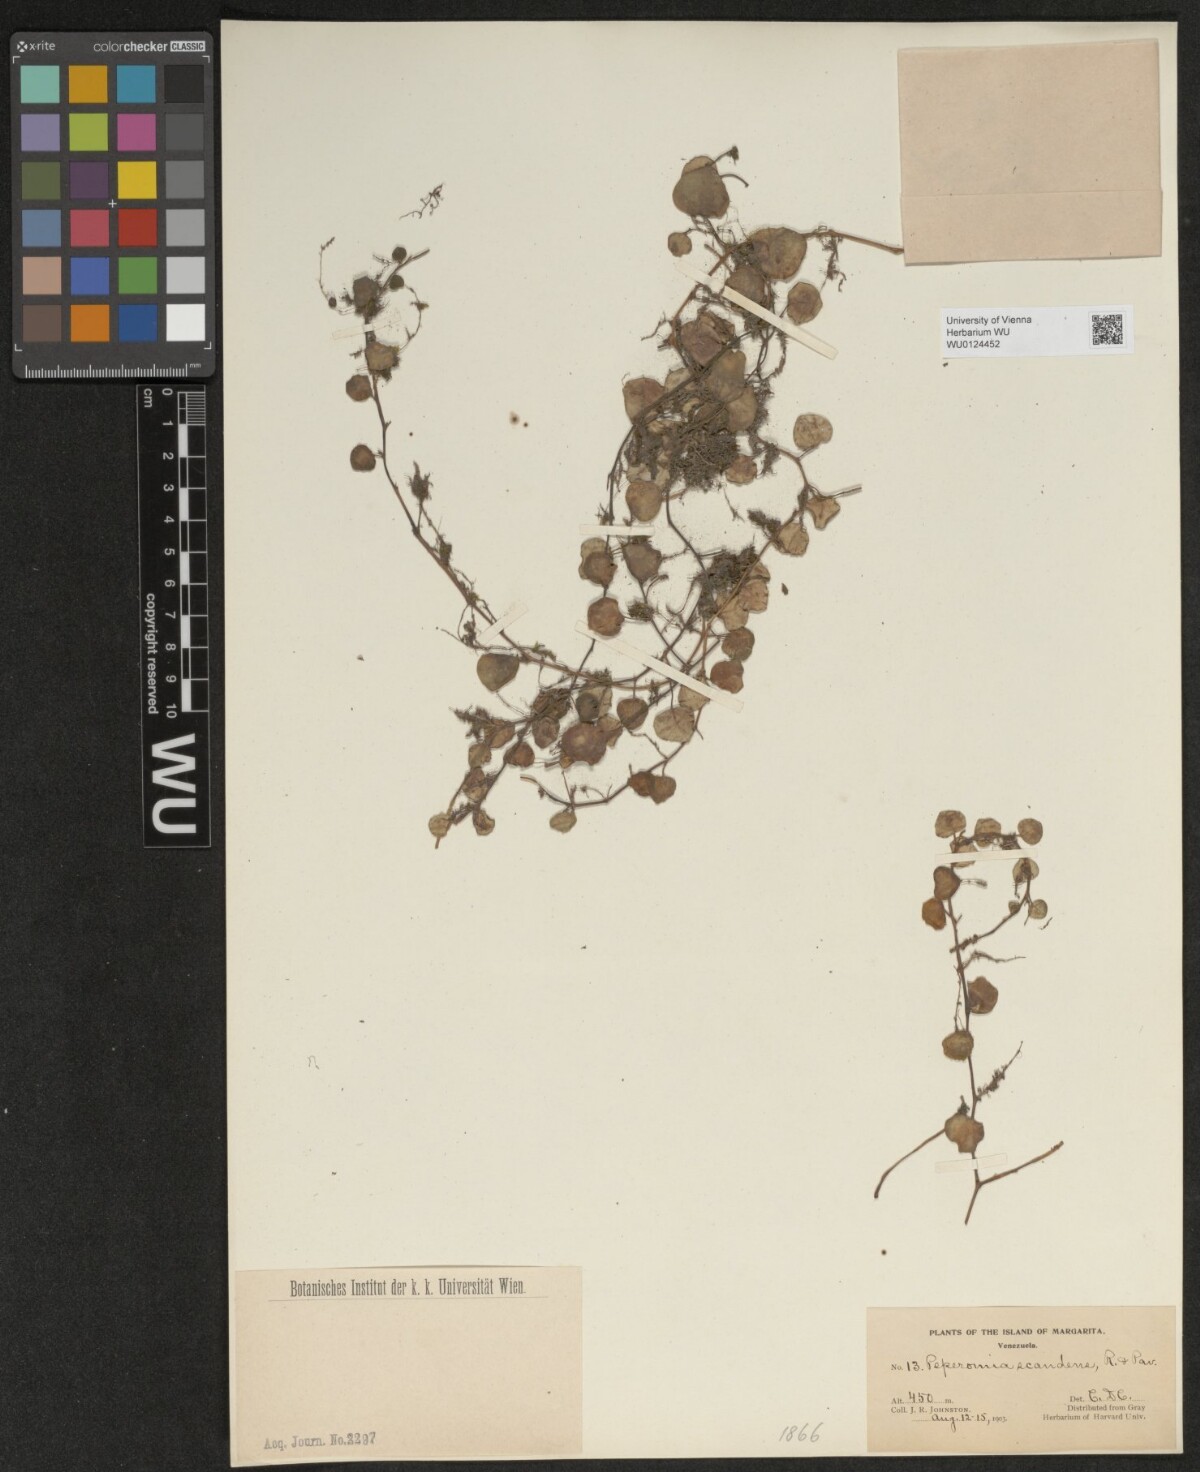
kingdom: Plantae
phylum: Tracheophyta
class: Magnoliopsida
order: Piperales
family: Piperaceae
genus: Peperomia
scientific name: Peperomia serpens
